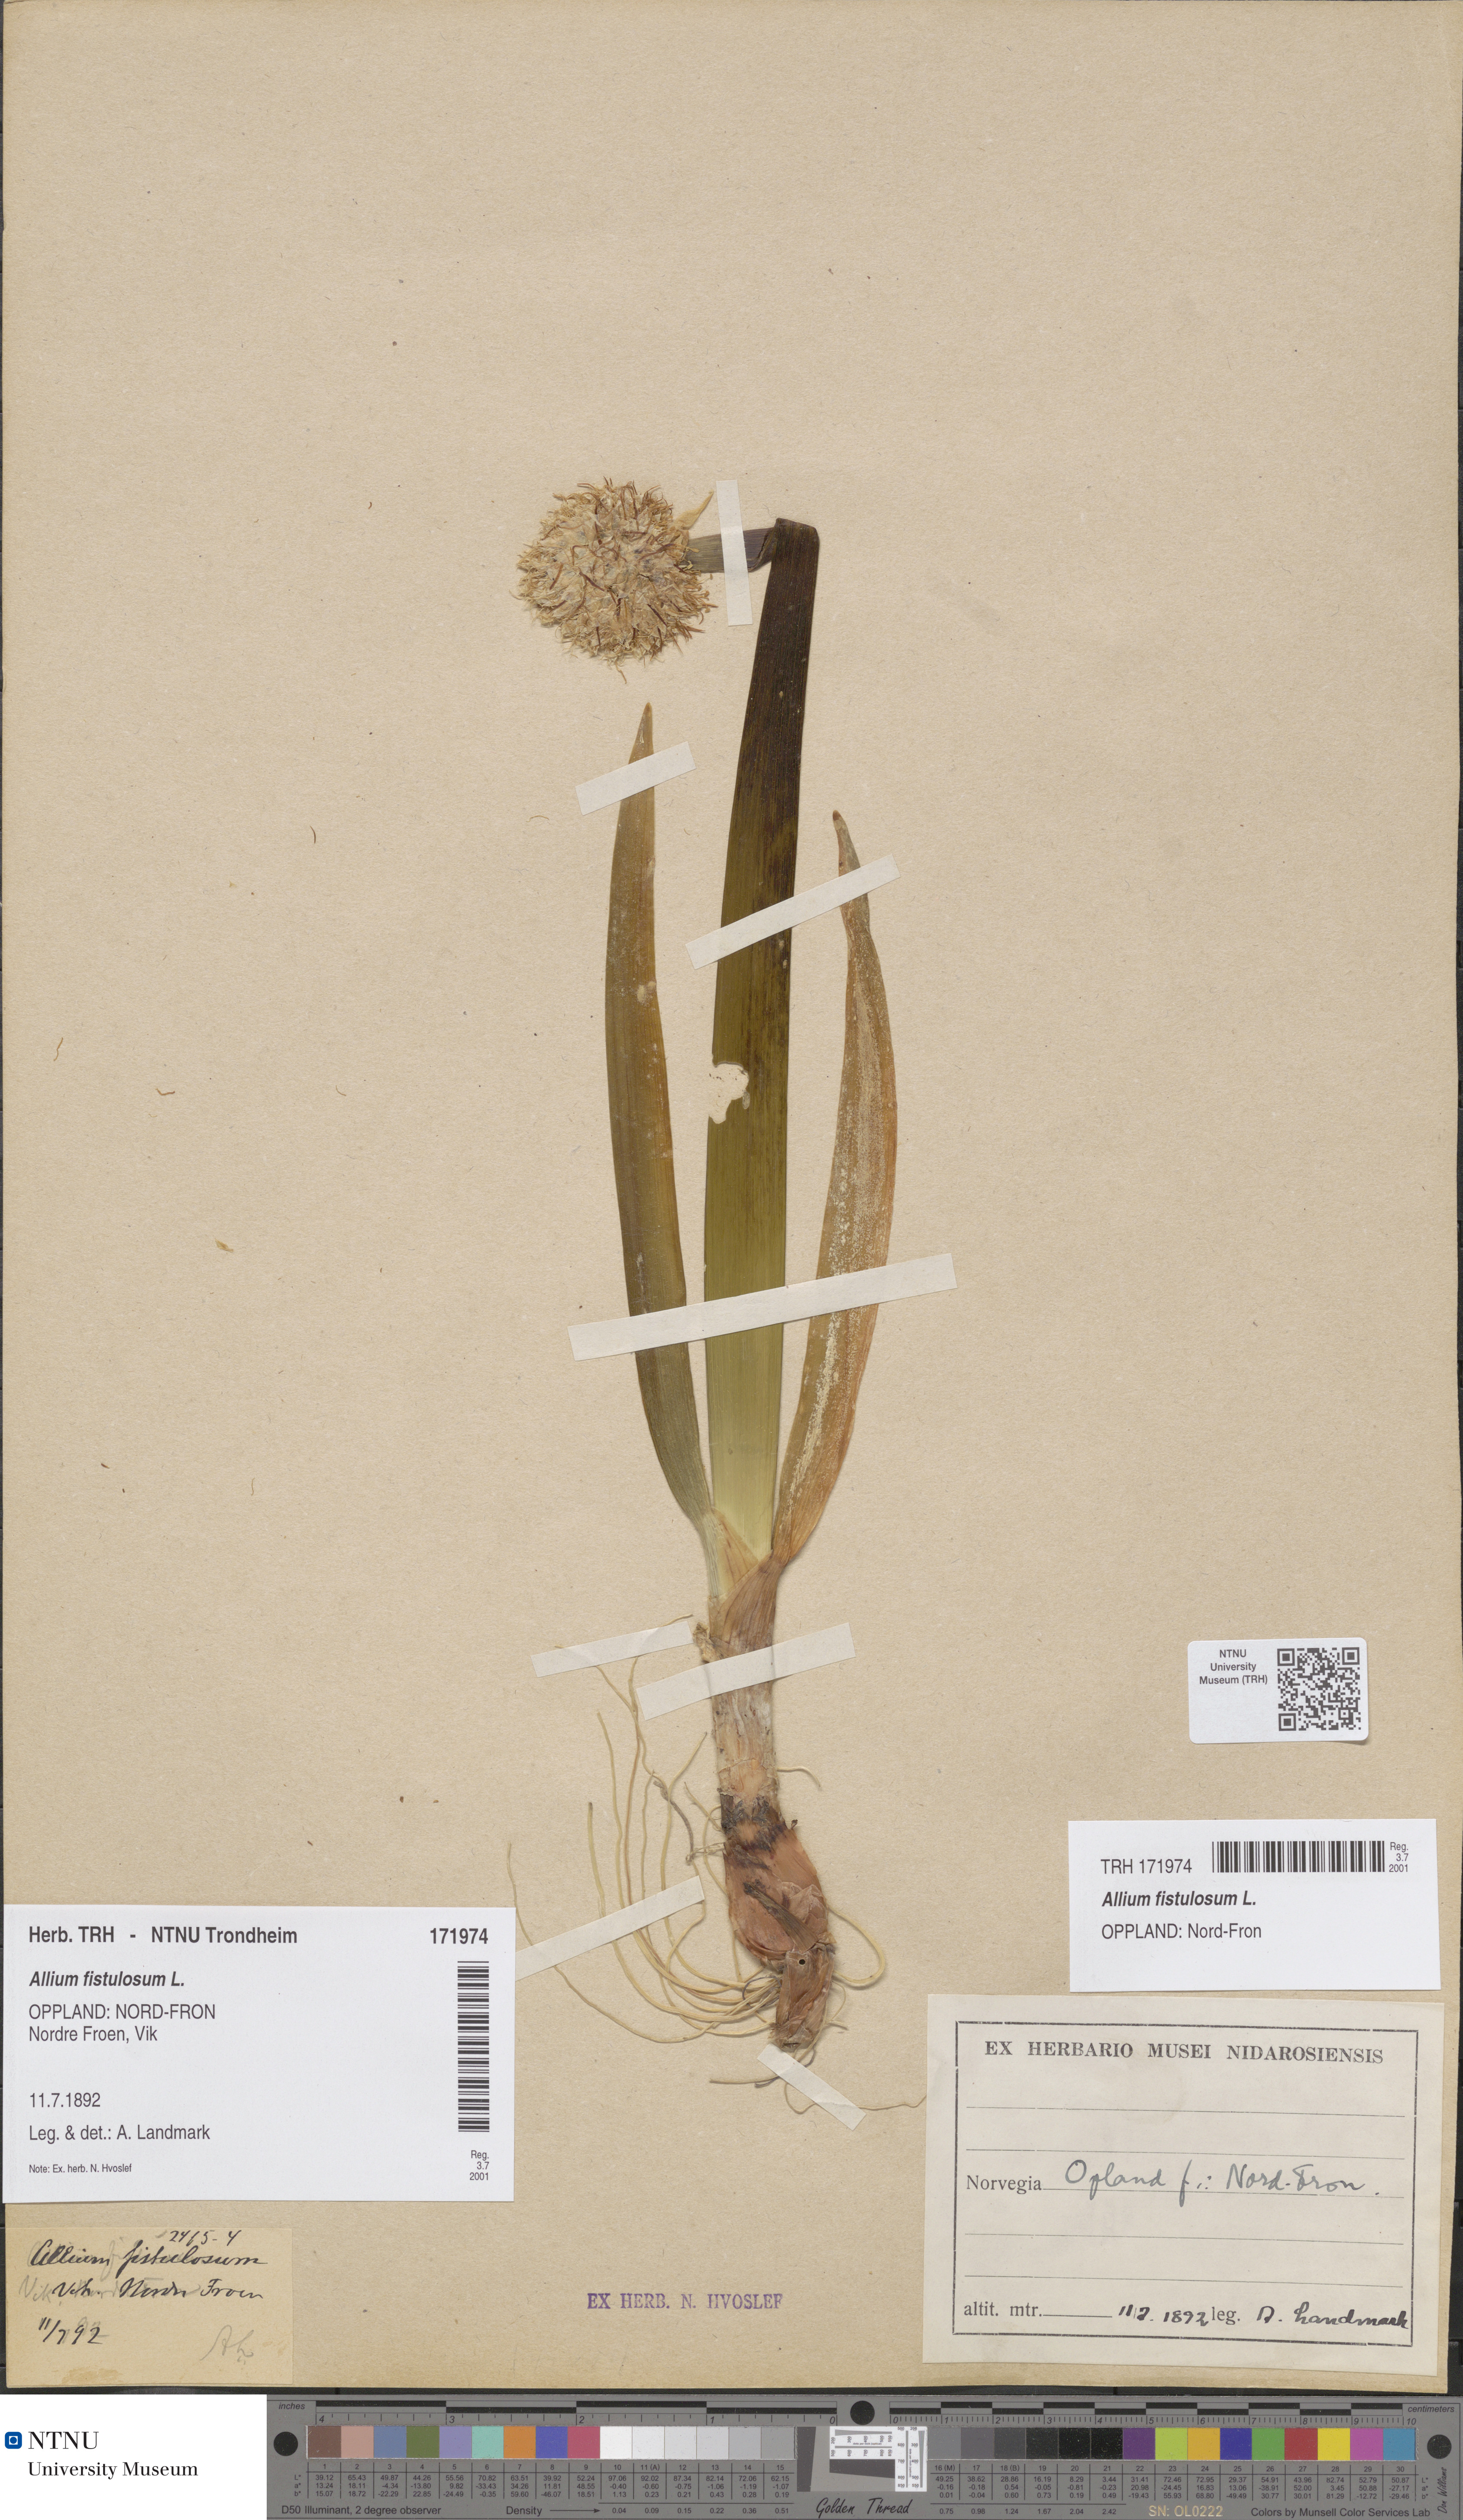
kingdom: Plantae
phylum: Tracheophyta
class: Liliopsida
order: Asparagales
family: Amaryllidaceae
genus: Allium
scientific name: Allium fistulosum
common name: Welsh onion
